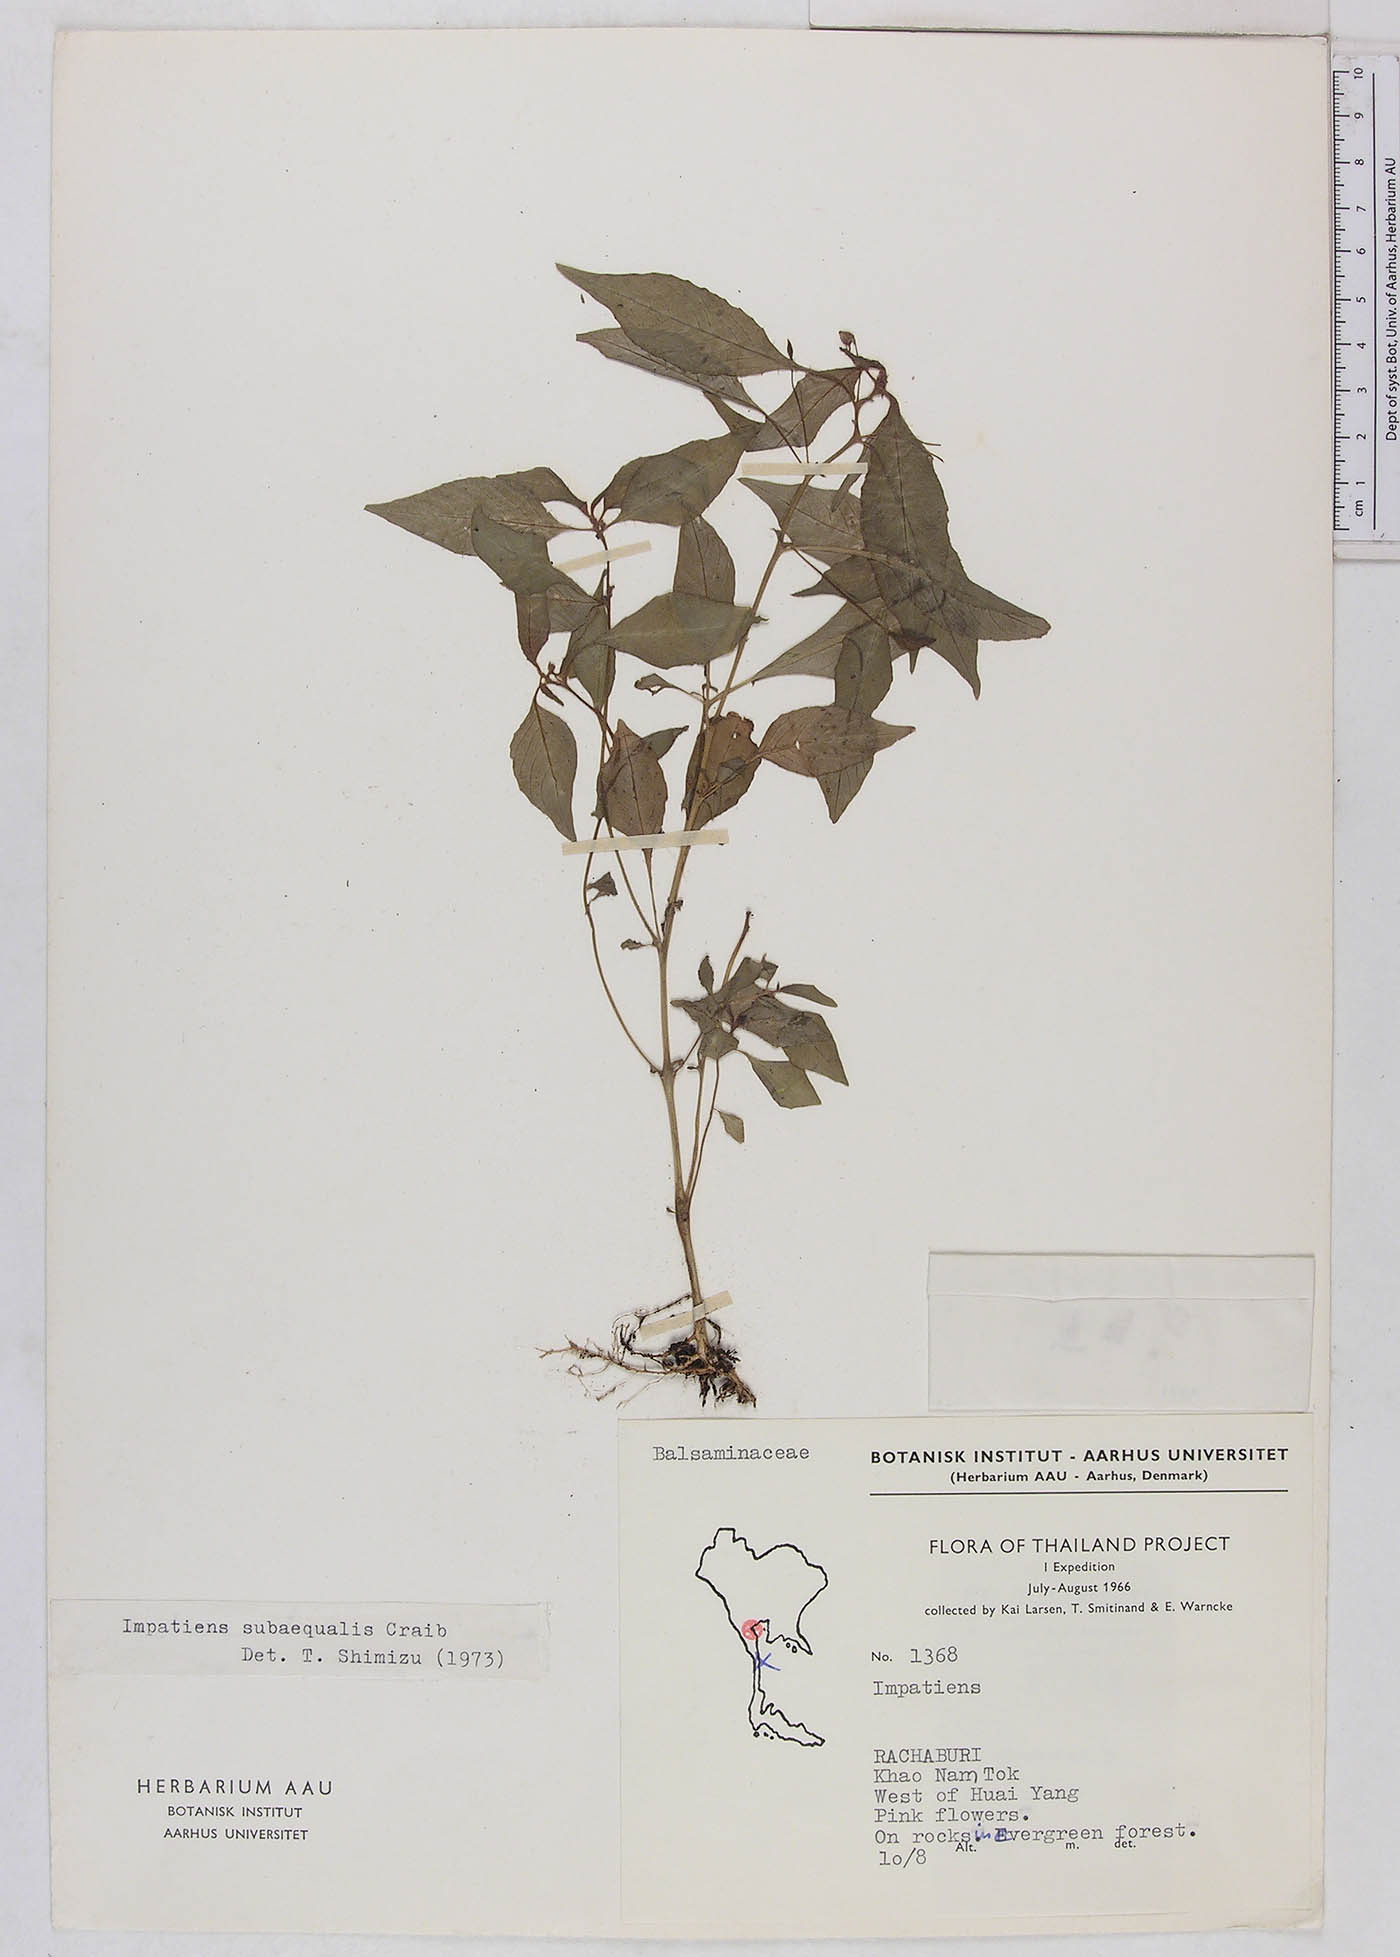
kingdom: Plantae
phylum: Tracheophyta
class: Magnoliopsida
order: Ericales
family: Balsaminaceae
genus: Impatiens
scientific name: Impatiens noei
